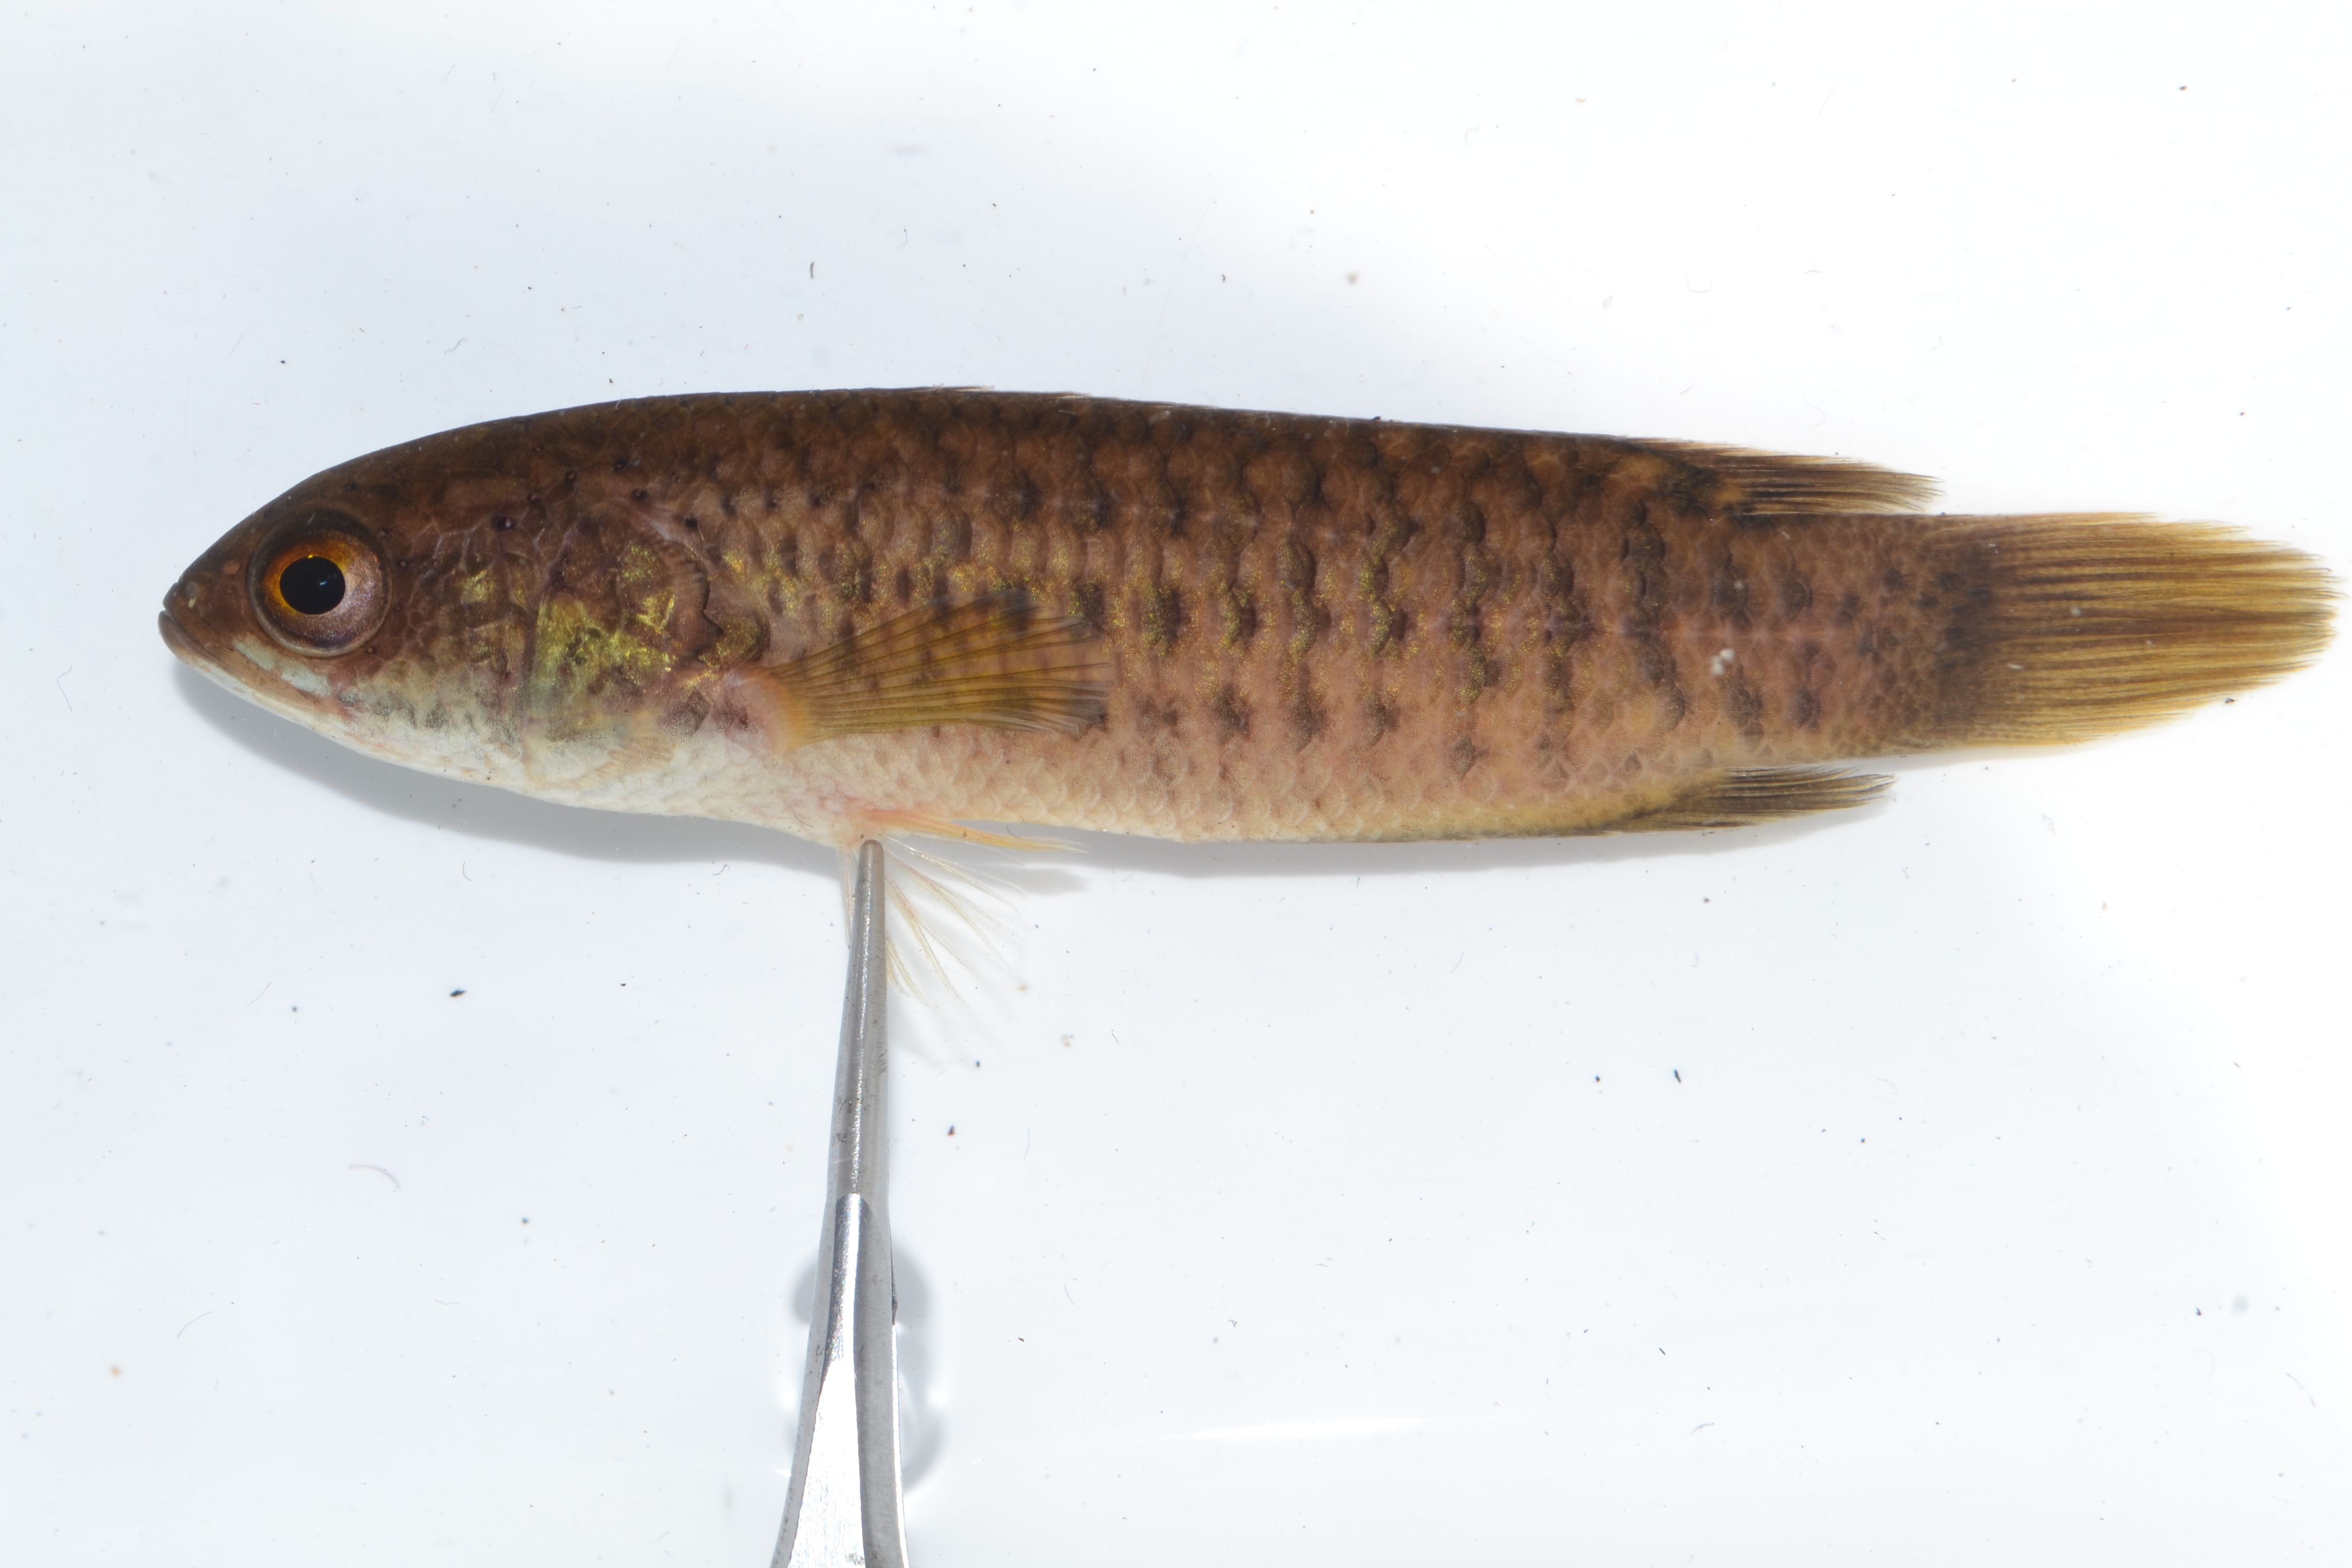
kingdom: Animalia
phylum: Chordata
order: Perciformes
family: Anabantidae
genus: Ctenopoma
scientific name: Ctenopoma multispine
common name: Manyspined climbing perch
